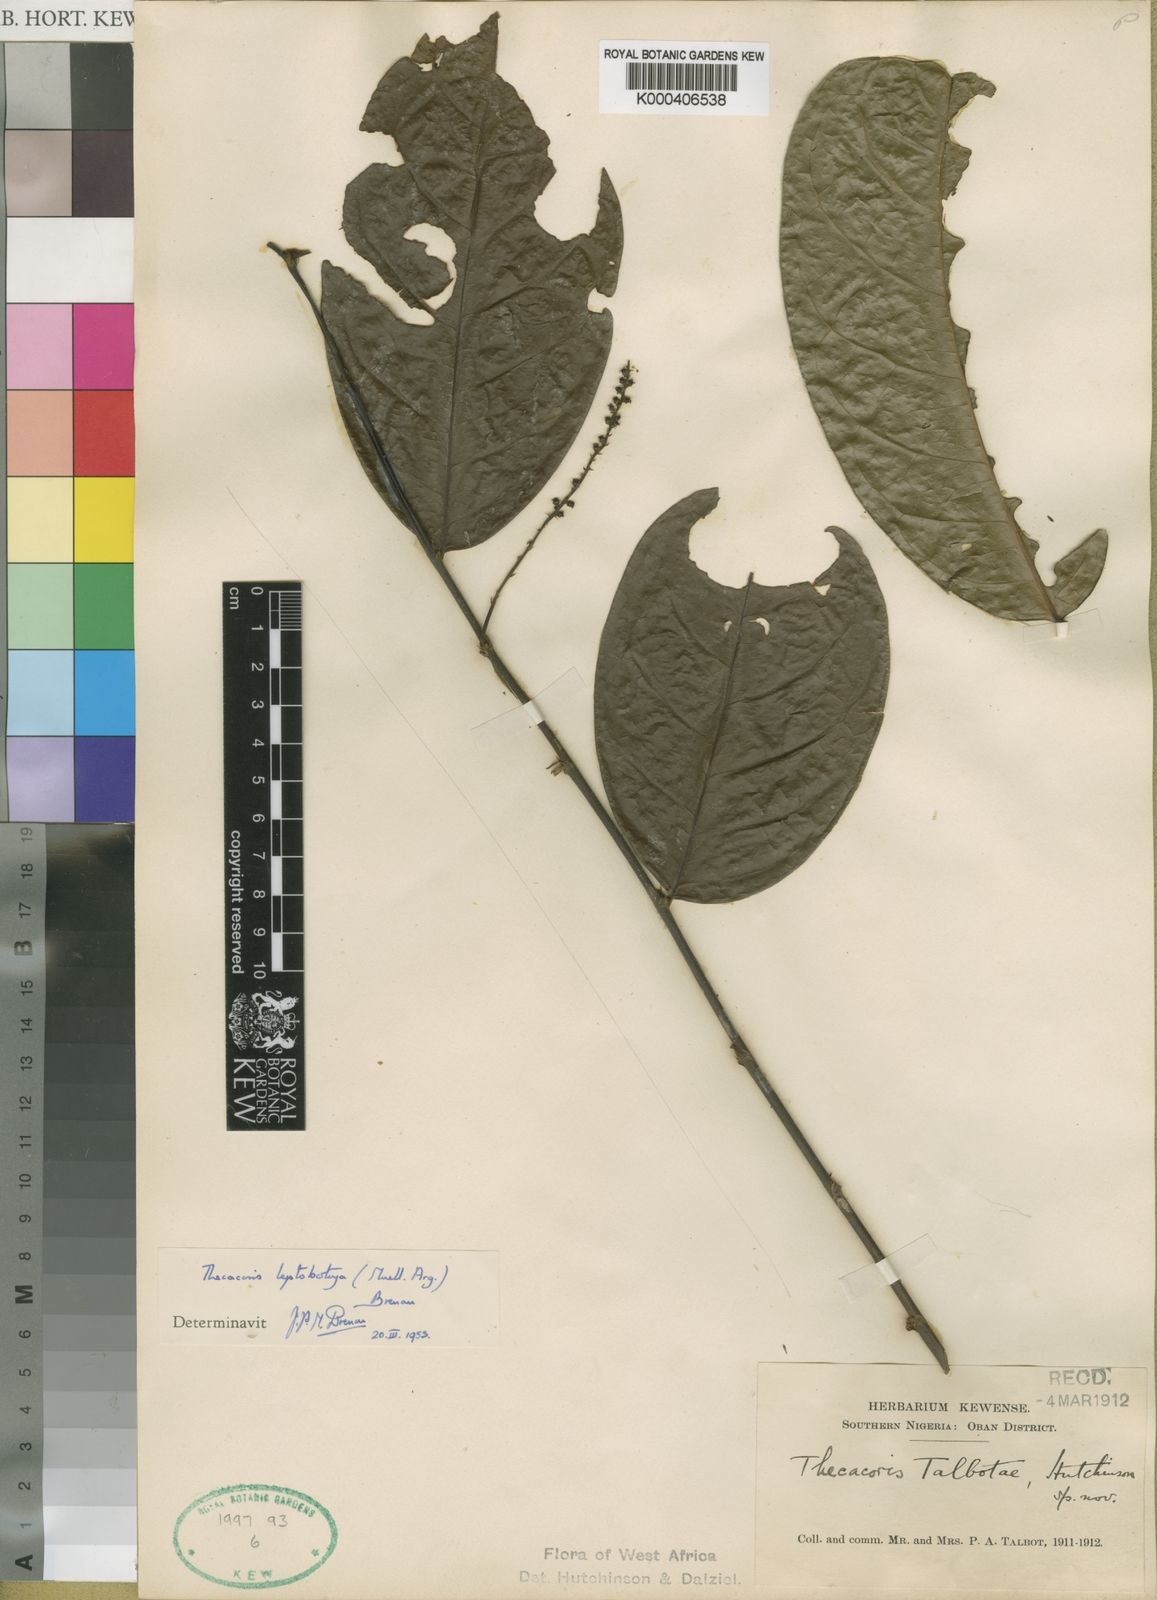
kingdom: Plantae
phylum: Tracheophyta
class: Magnoliopsida
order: Malpighiales
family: Phyllanthaceae
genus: Thecacoris
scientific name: Thecacoris
